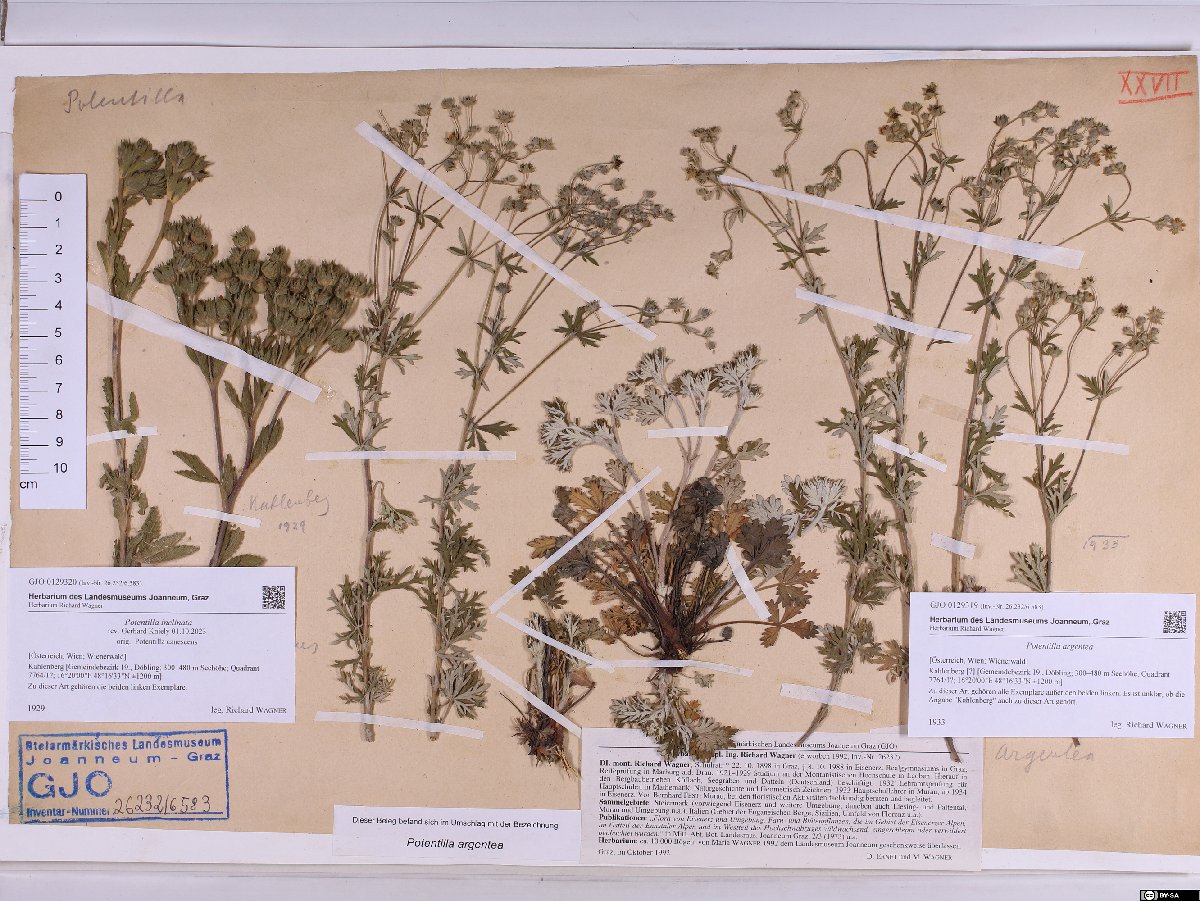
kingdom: Plantae
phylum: Tracheophyta
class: Magnoliopsida
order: Rosales
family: Rosaceae
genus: Potentilla
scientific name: Potentilla argentea
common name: Hoary cinquefoil
